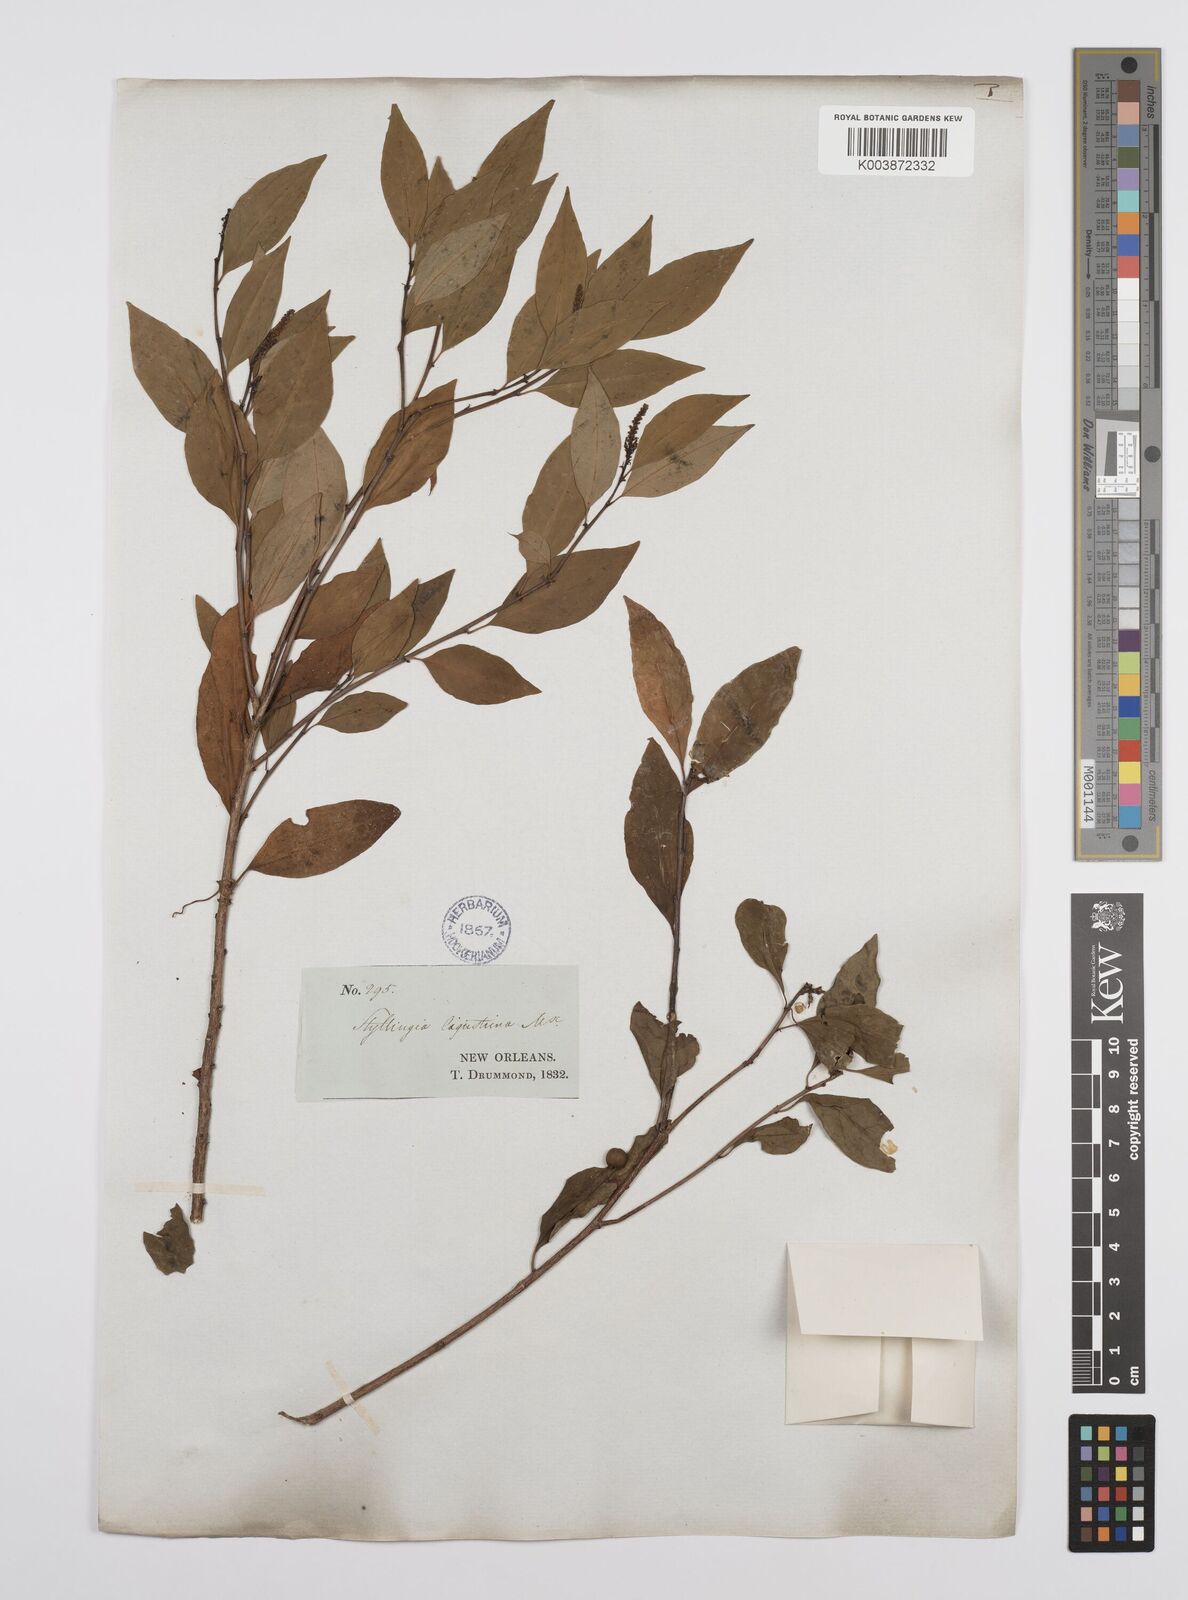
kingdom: Plantae
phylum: Tracheophyta
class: Magnoliopsida
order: Malpighiales
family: Euphorbiaceae
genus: Ditrysinia
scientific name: Ditrysinia fruticosa
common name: Gulf sebastian-bush
